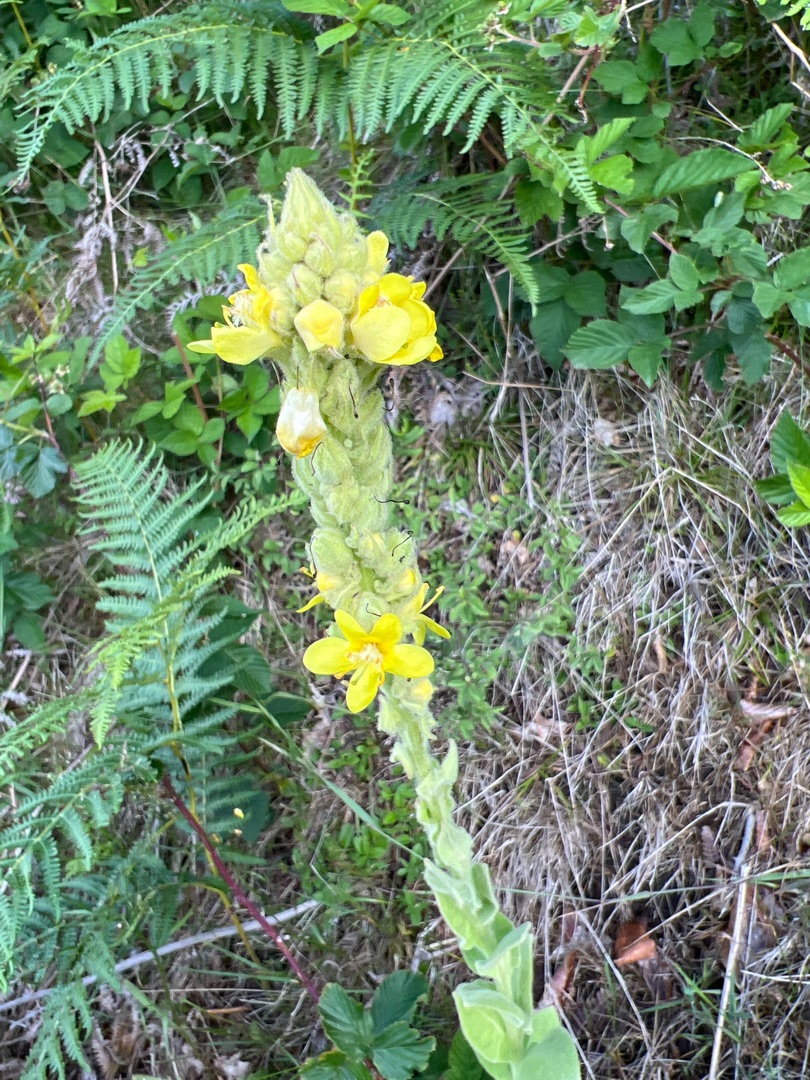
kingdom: Plantae
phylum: Tracheophyta
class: Magnoliopsida
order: Lamiales
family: Scrophulariaceae
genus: Verbascum
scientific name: Verbascum thapsus
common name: Filtbladet kongelys
